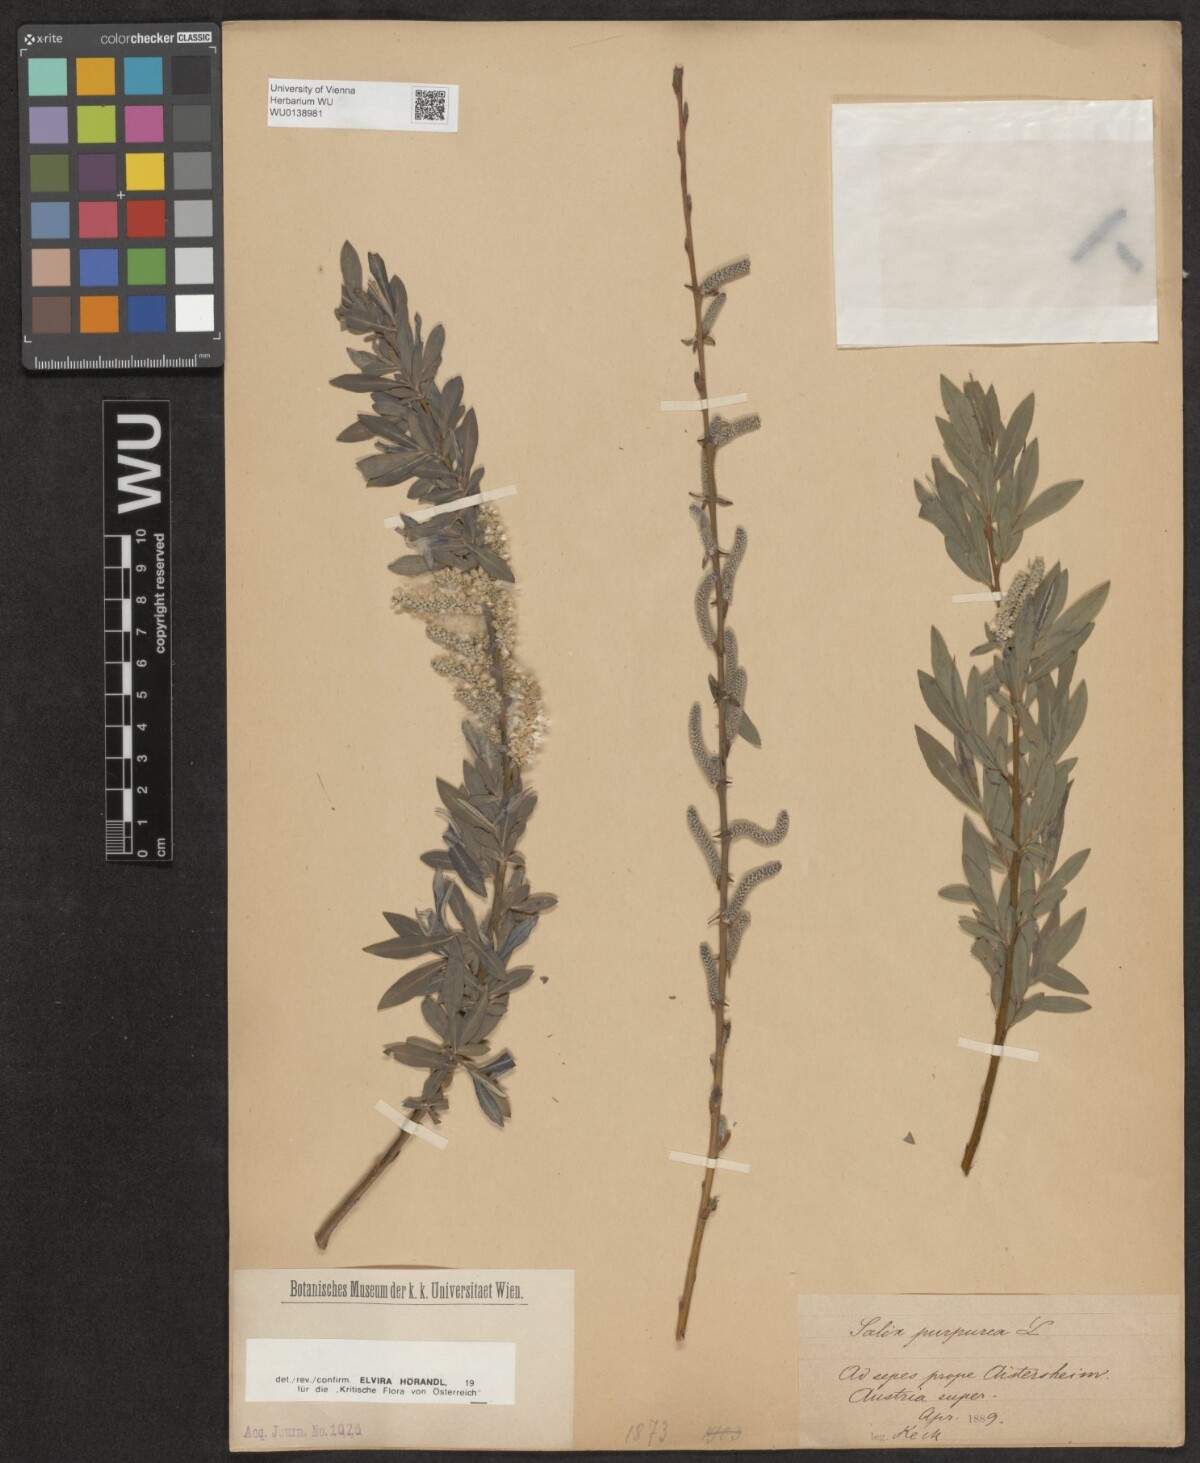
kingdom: Plantae
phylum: Tracheophyta
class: Magnoliopsida
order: Malpighiales
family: Salicaceae
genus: Salix
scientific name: Salix purpurea
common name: Purple willow
